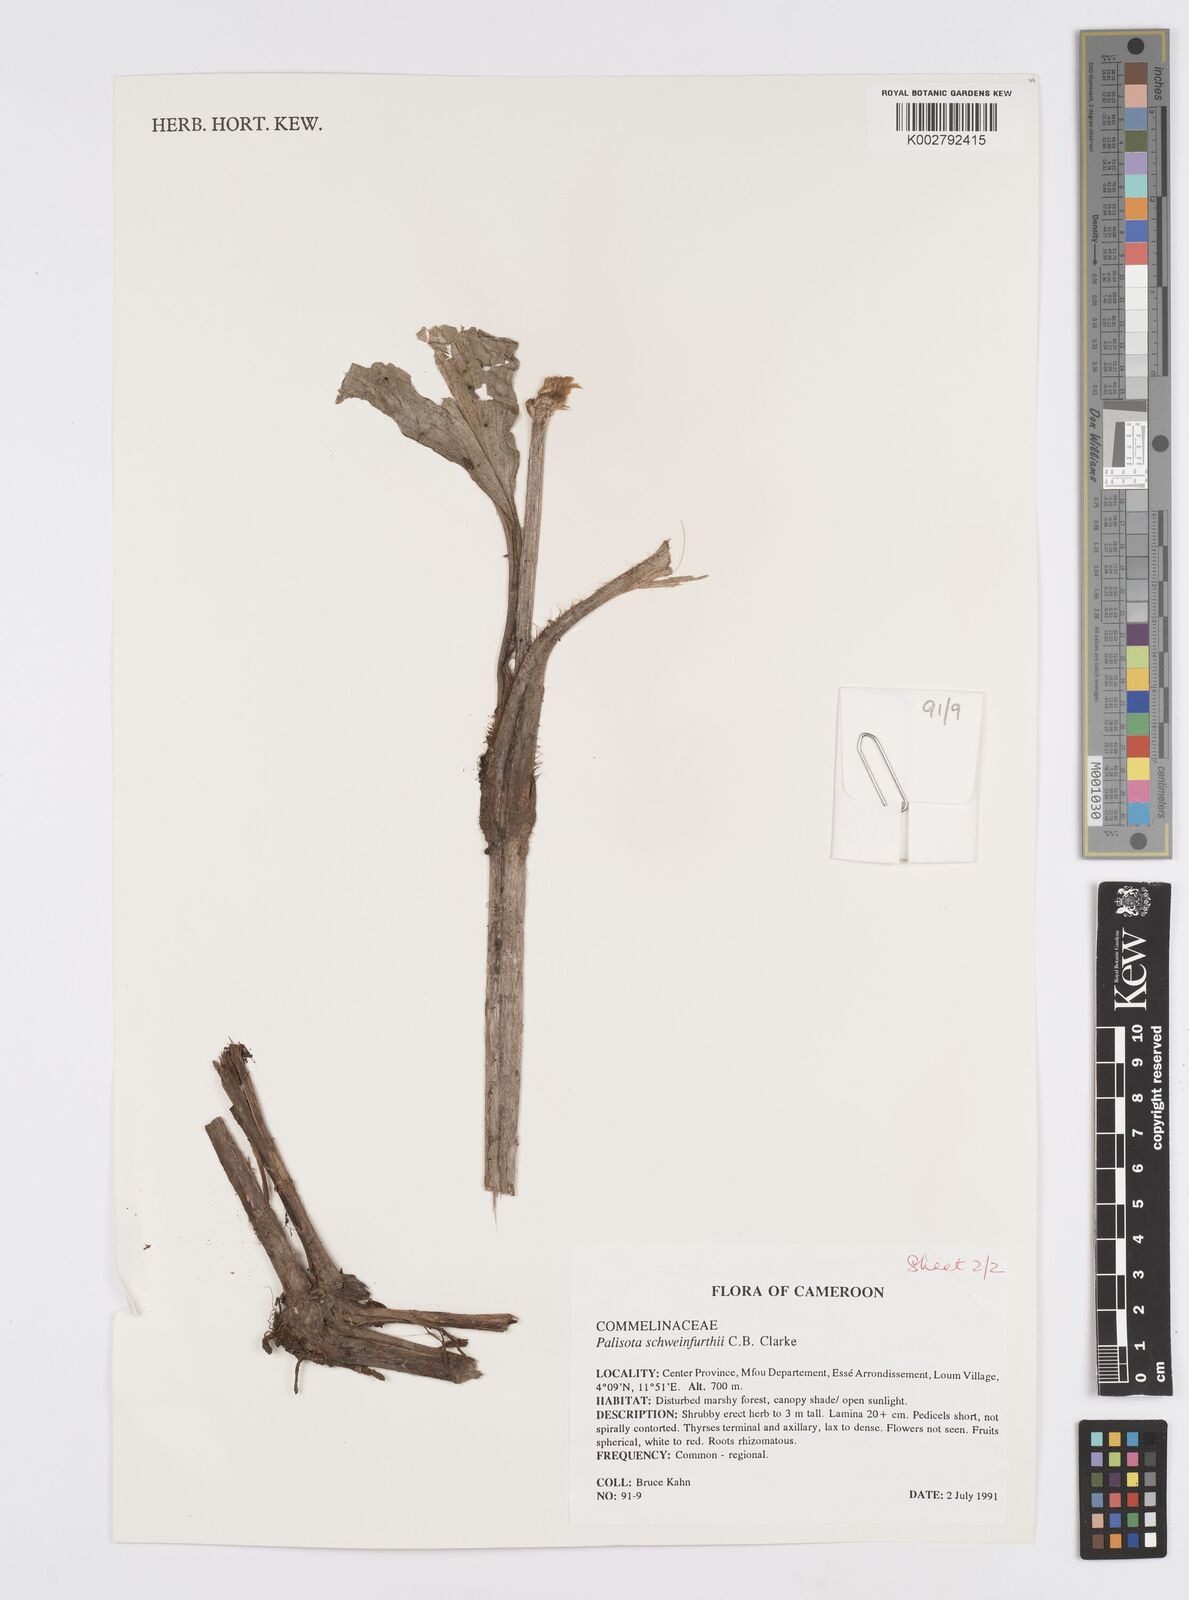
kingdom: Plantae
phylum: Tracheophyta
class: Liliopsida
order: Commelinales
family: Commelinaceae
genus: Palisota
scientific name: Palisota schweinfurthii
